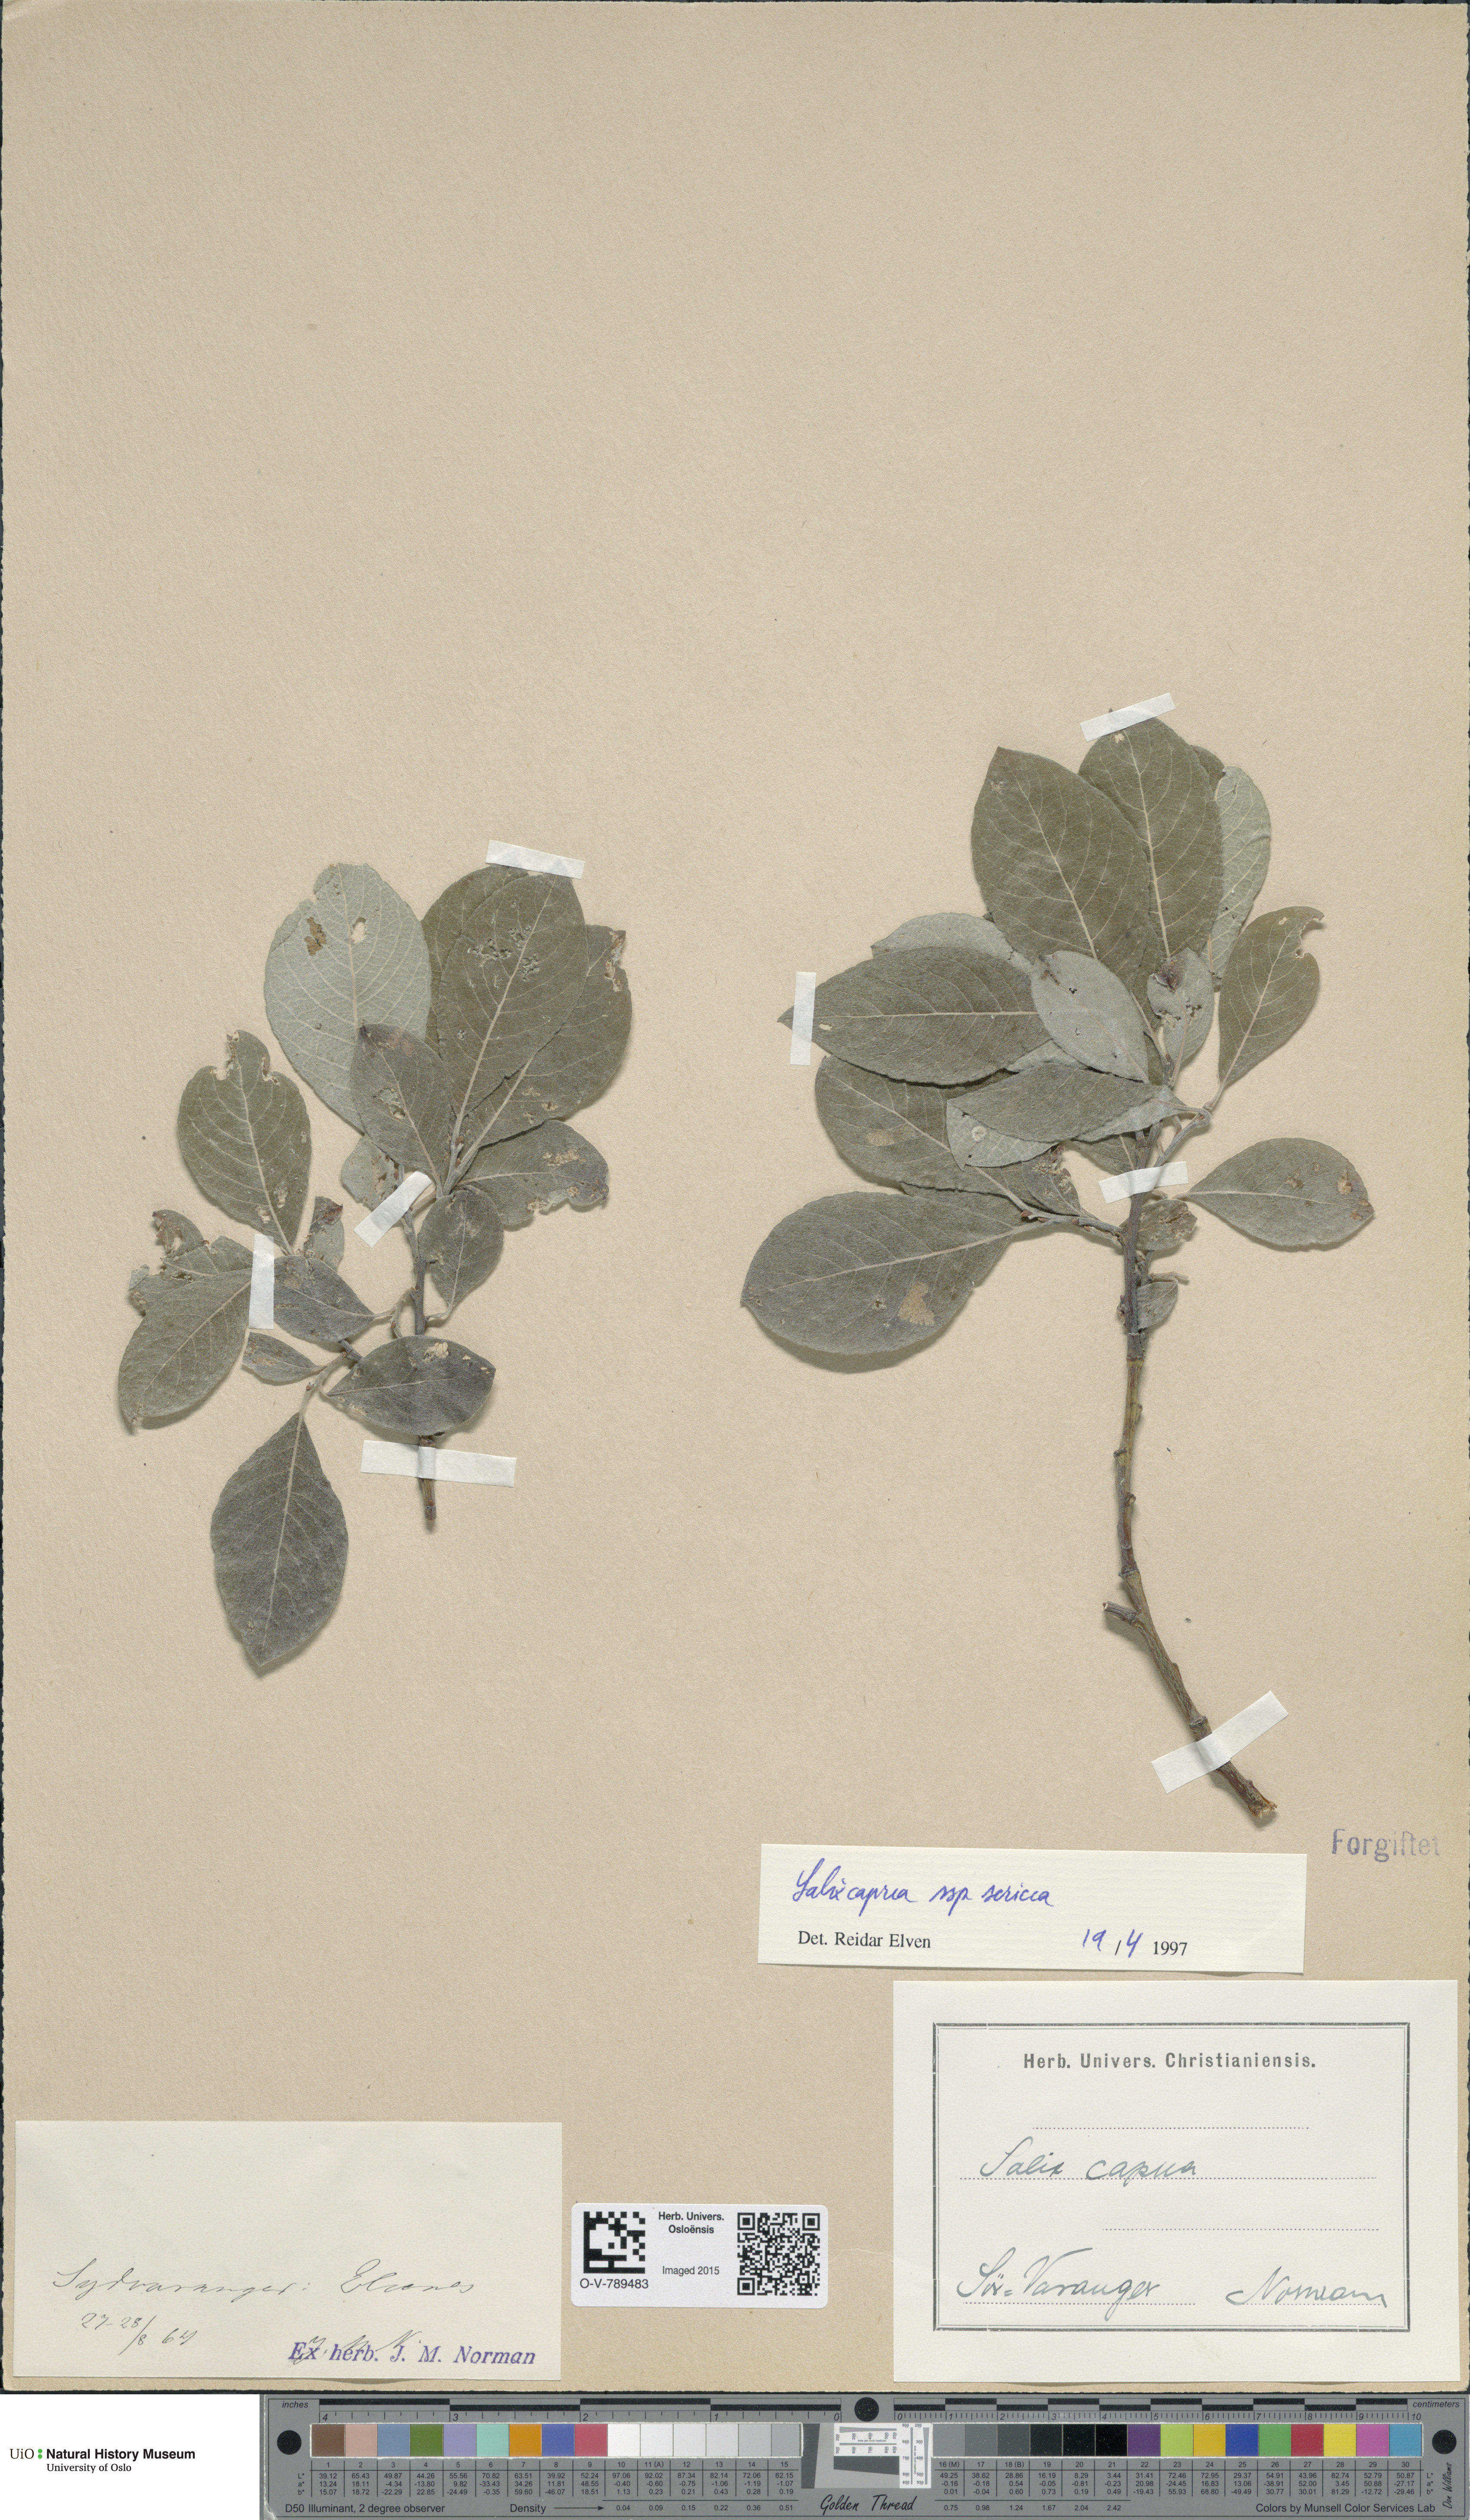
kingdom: Plantae
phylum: Tracheophyta
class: Magnoliopsida
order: Malpighiales
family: Salicaceae
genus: Salix
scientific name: Salix caprea
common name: Goat willow
